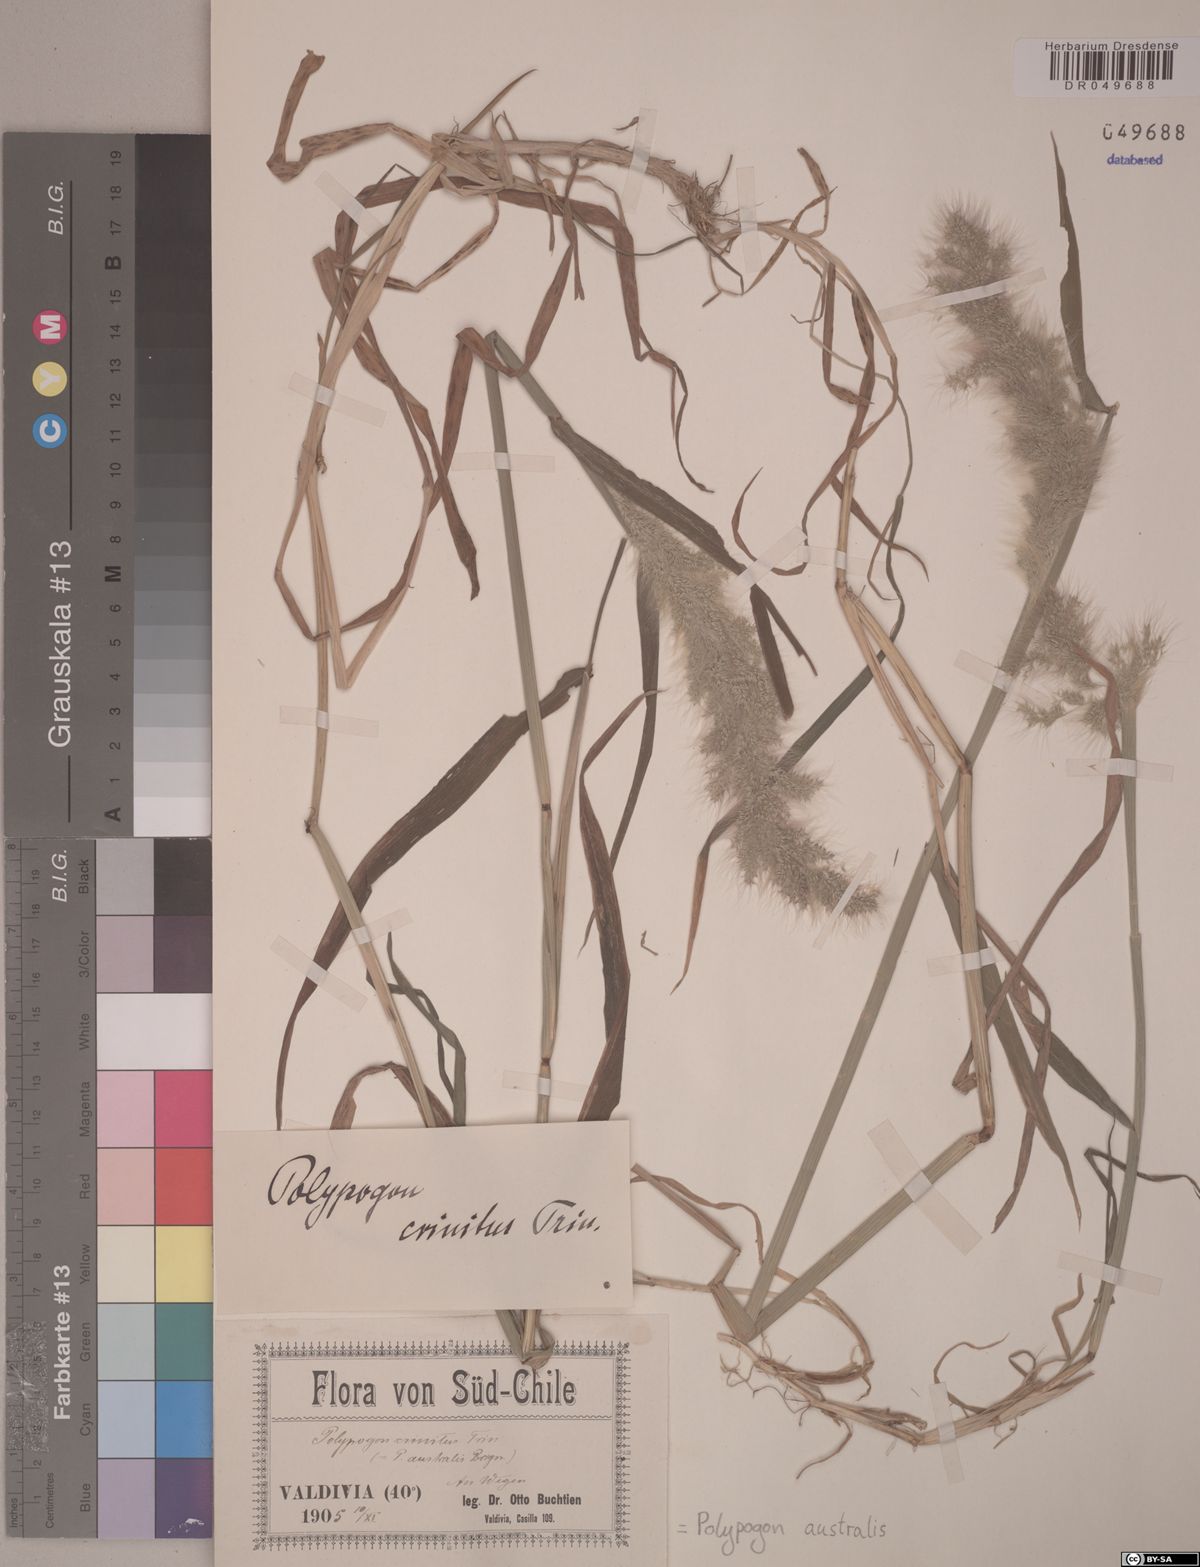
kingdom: Plantae
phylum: Tracheophyta
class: Liliopsida
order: Poales
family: Poaceae
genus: Polypogon
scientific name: Polypogon australis
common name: Chilean rabbitsfoot grass
